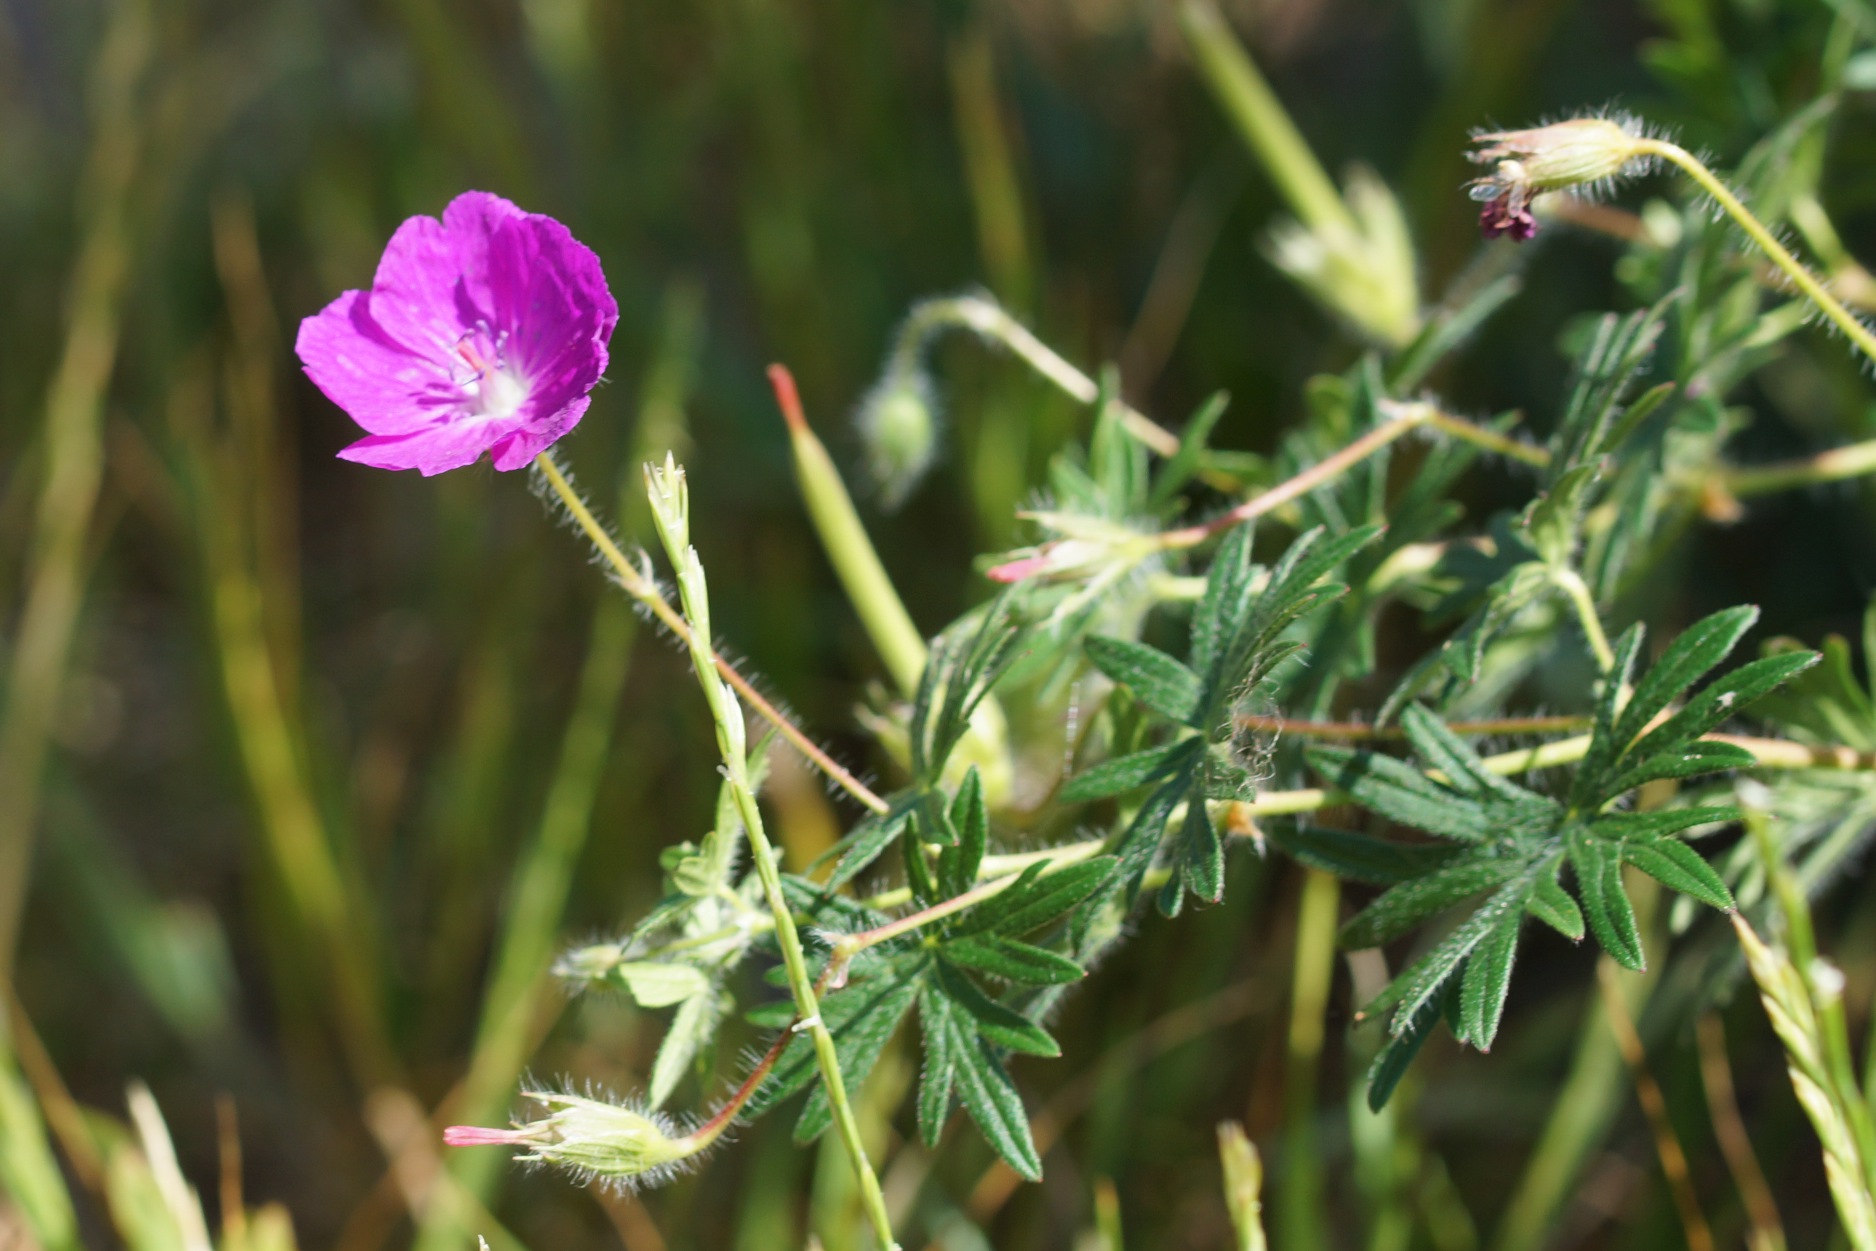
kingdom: Plantae
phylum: Tracheophyta
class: Magnoliopsida
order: Geraniales
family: Geraniaceae
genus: Geranium
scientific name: Geranium sanguineum
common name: Blodrød storkenæb
